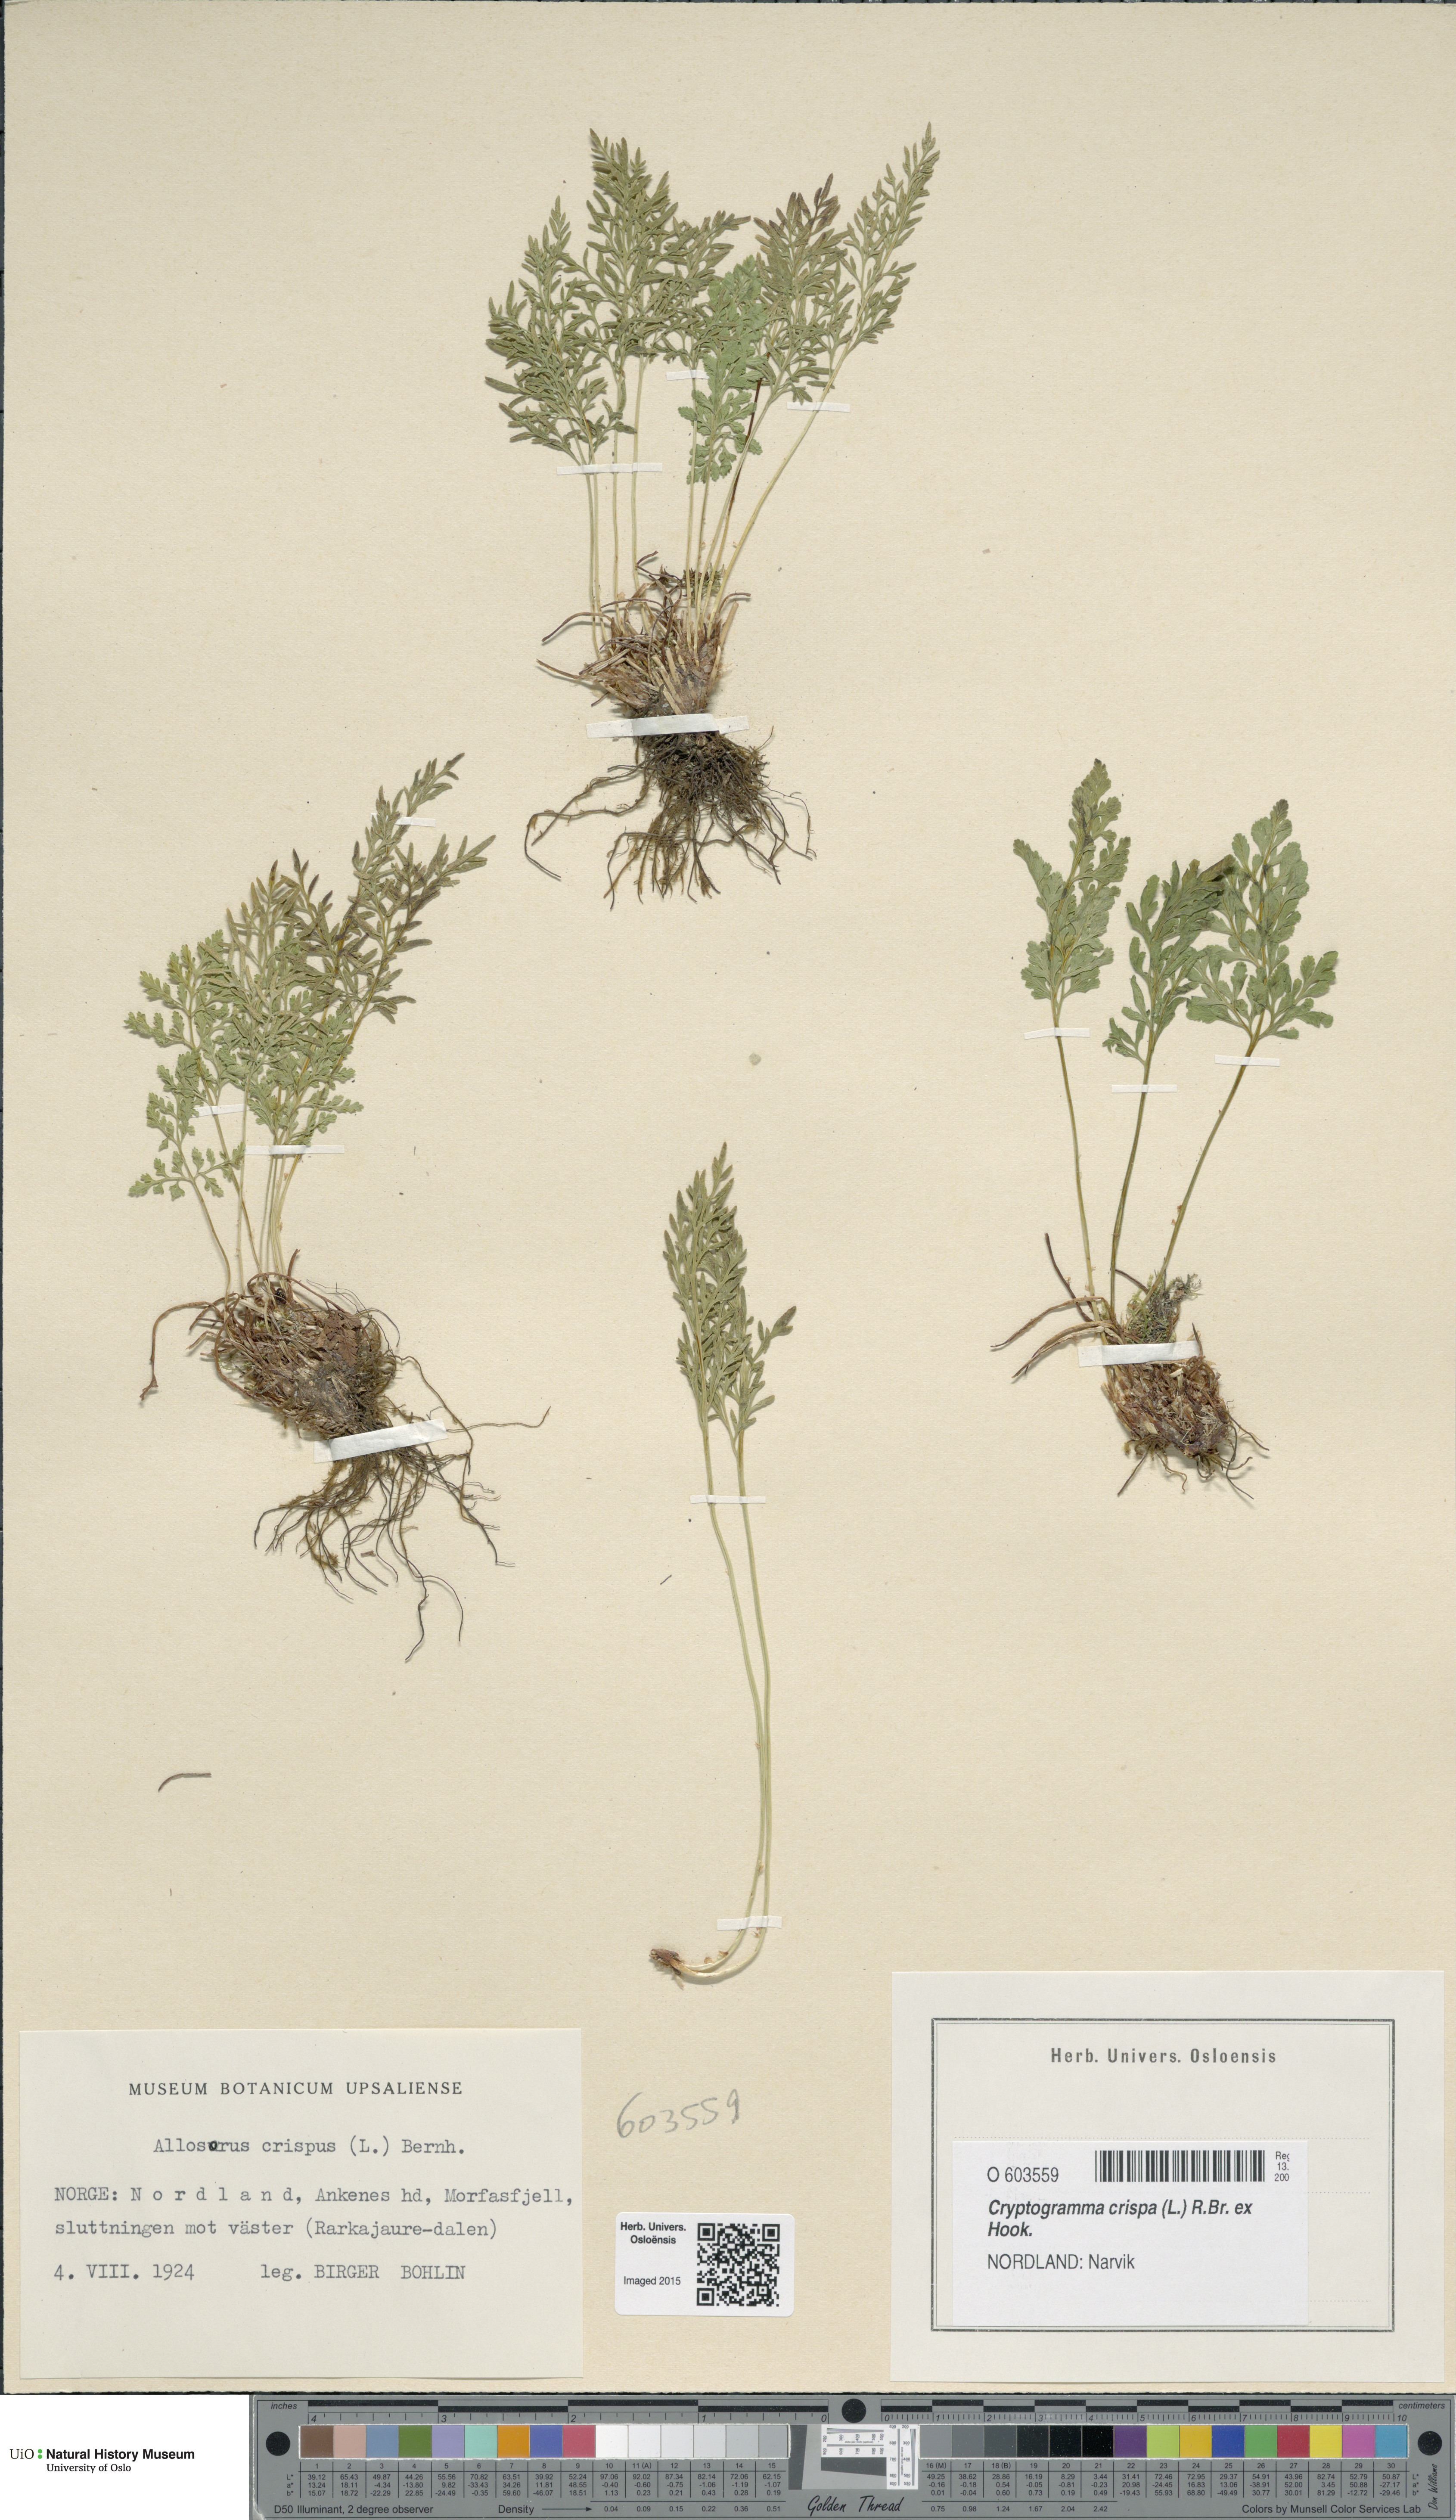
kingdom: Plantae
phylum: Tracheophyta
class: Polypodiopsida
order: Polypodiales
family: Pteridaceae
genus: Cryptogramma
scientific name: Cryptogramma crispa
